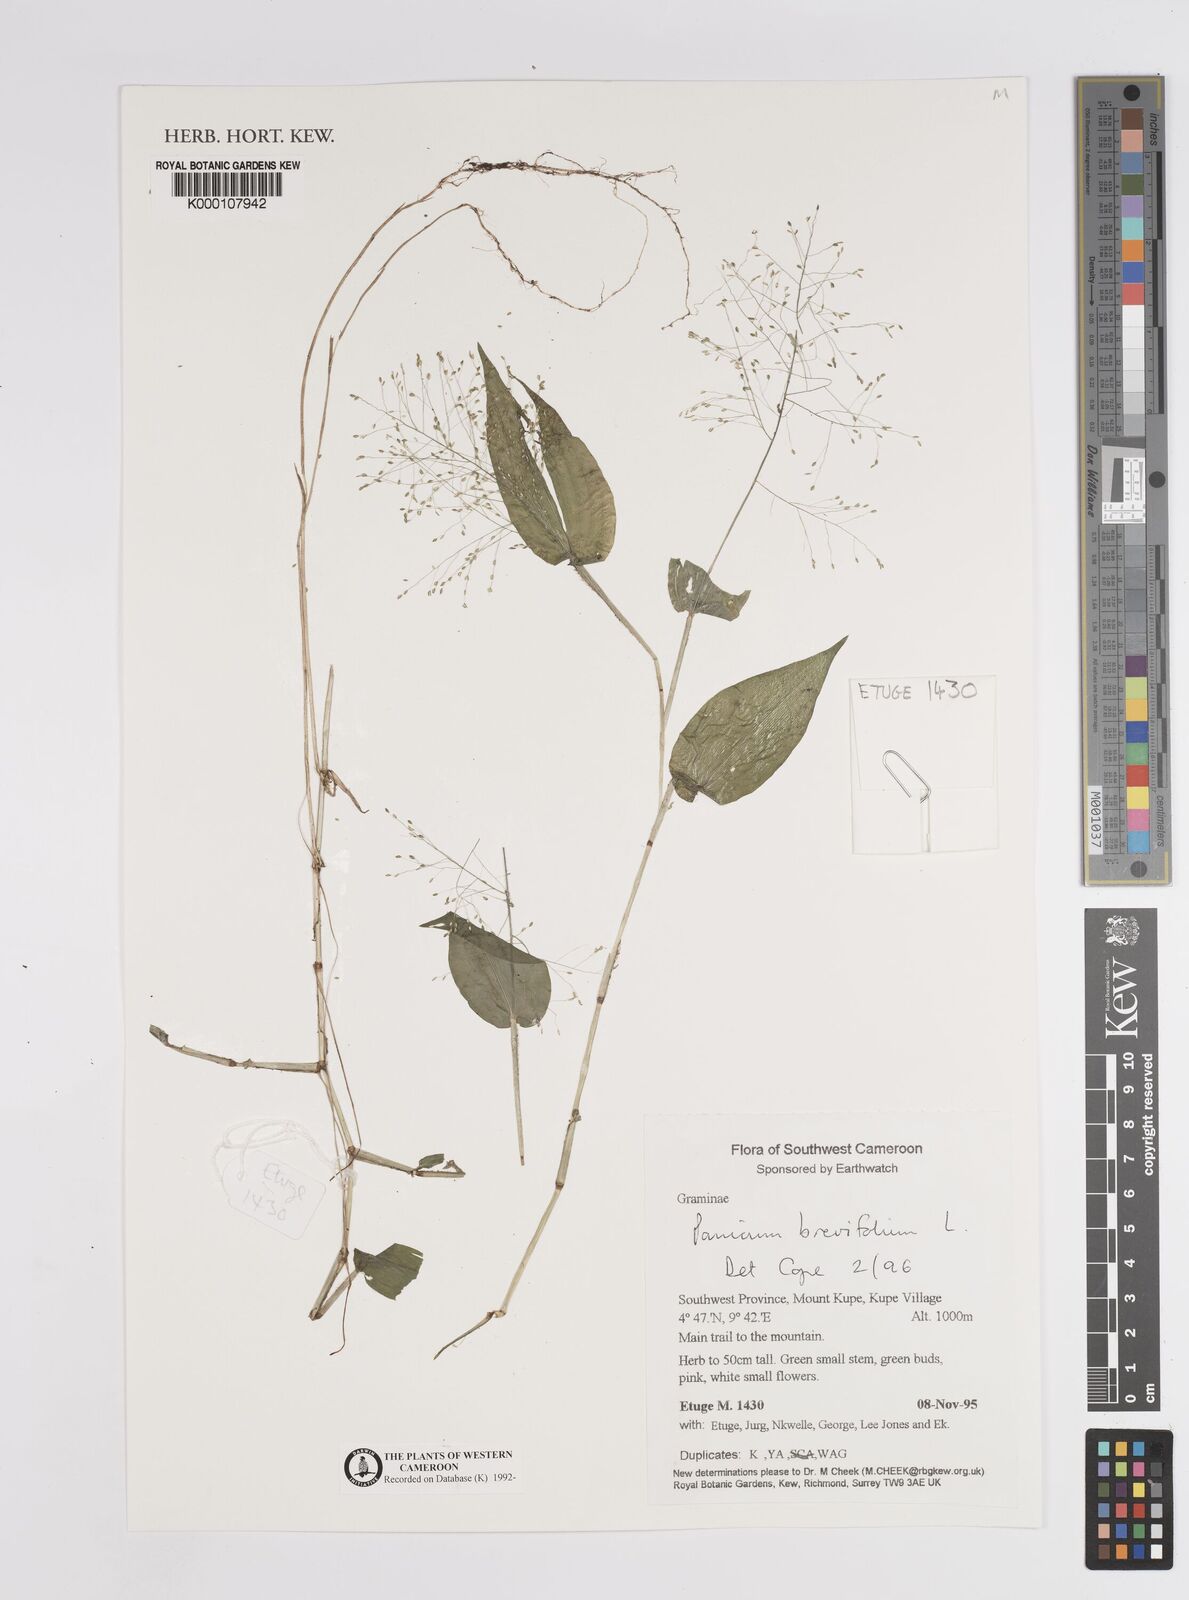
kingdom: Plantae
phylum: Tracheophyta
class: Liliopsida
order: Poales
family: Poaceae
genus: Panicum
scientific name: Panicum brevifolium
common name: Shortleaf panic grass
